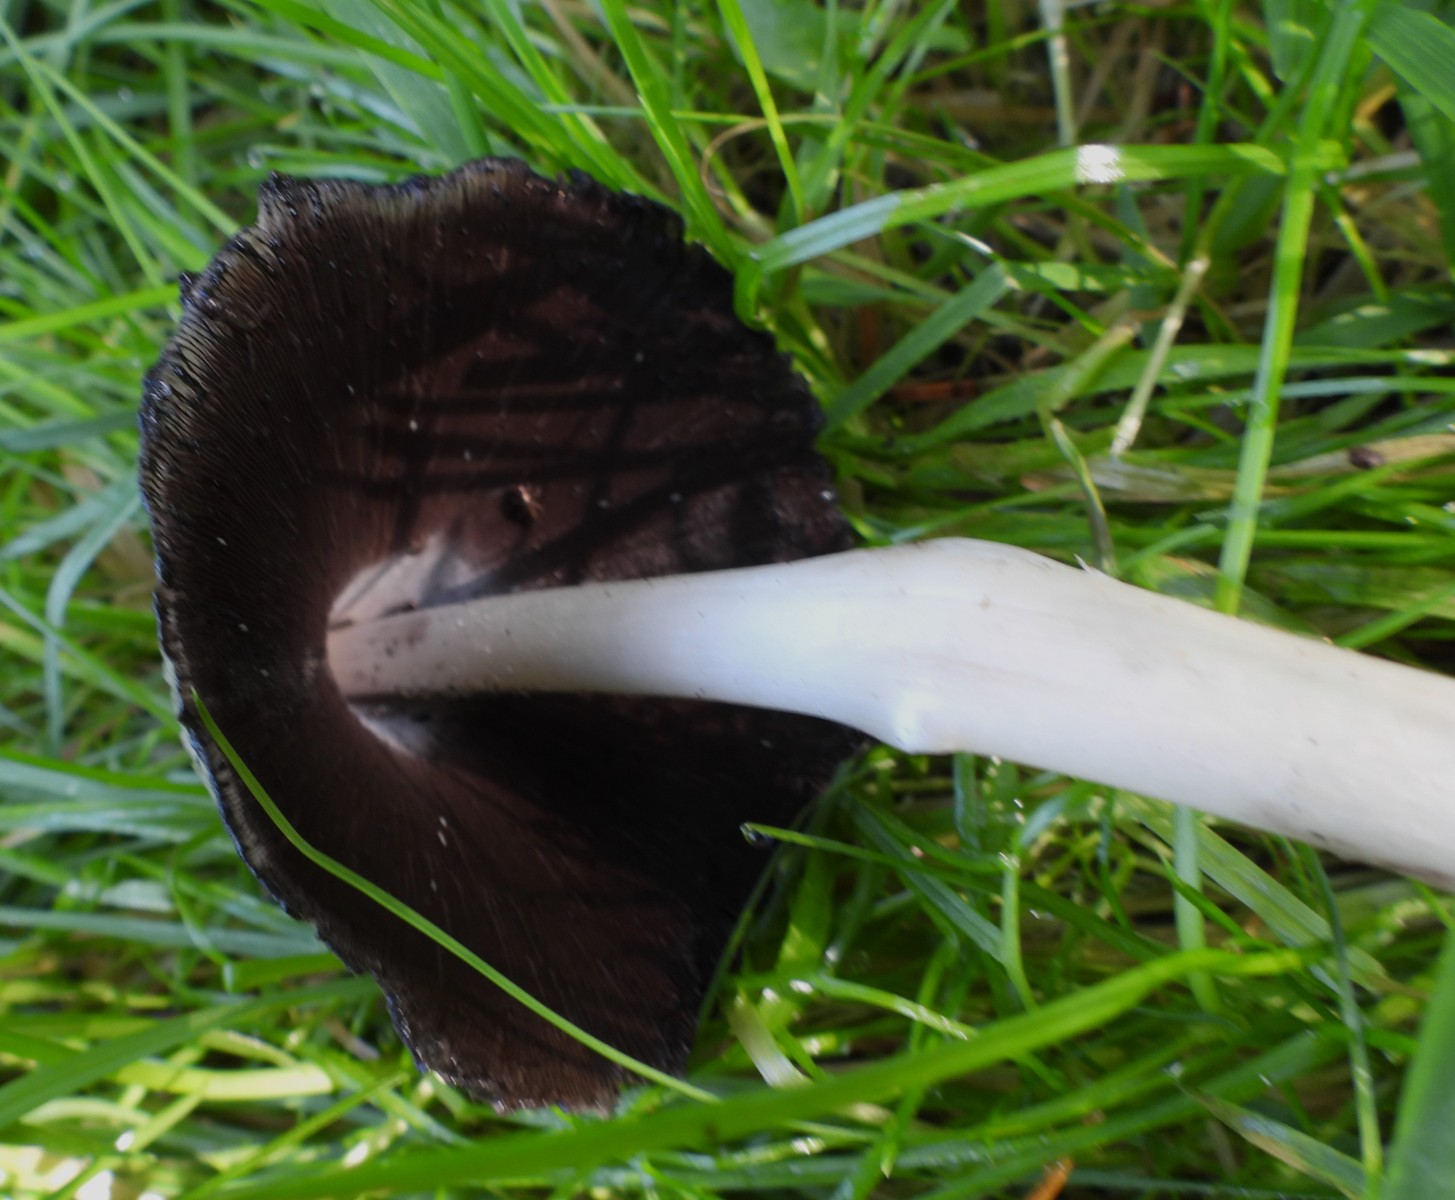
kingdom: Fungi
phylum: Basidiomycota
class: Agaricomycetes
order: Agaricales
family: Psathyrellaceae
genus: Coprinopsis
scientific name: Coprinopsis atramentaria
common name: almindelig blækhat
